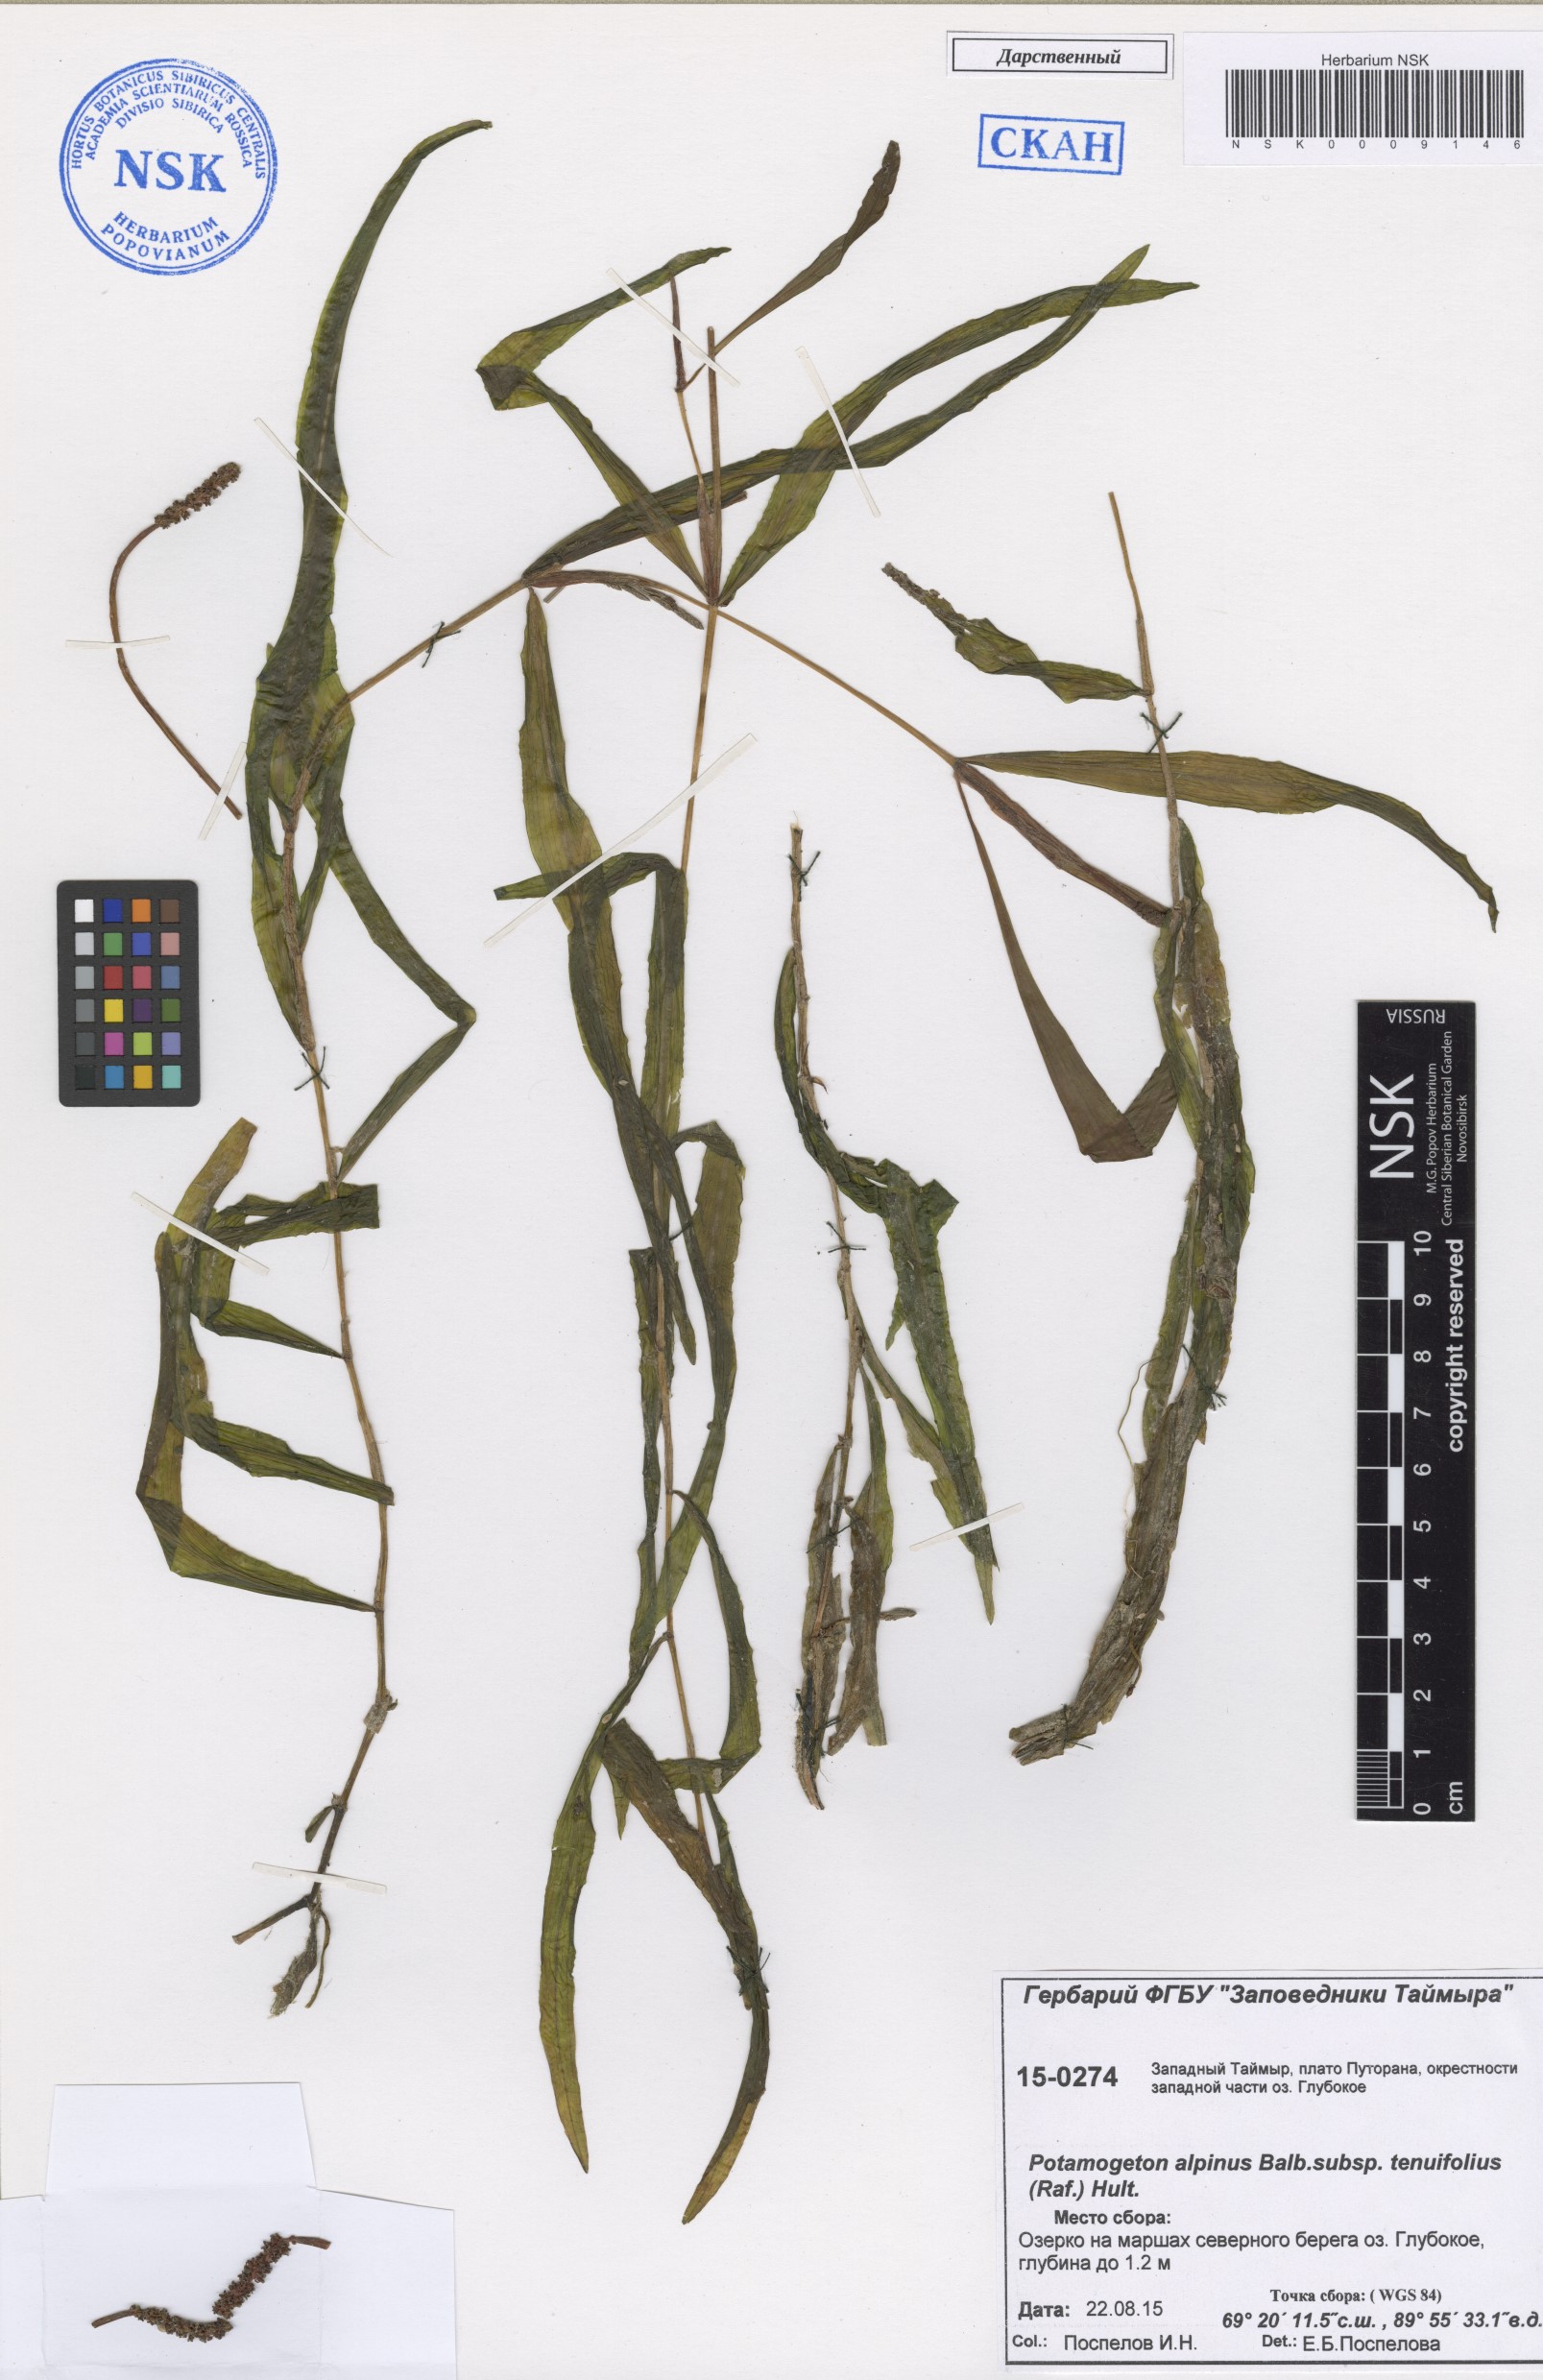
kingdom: Plantae
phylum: Tracheophyta
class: Liliopsida
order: Alismatales
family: Potamogetonaceae
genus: Potamogeton
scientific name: Potamogeton alpinus
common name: Red pondweed
